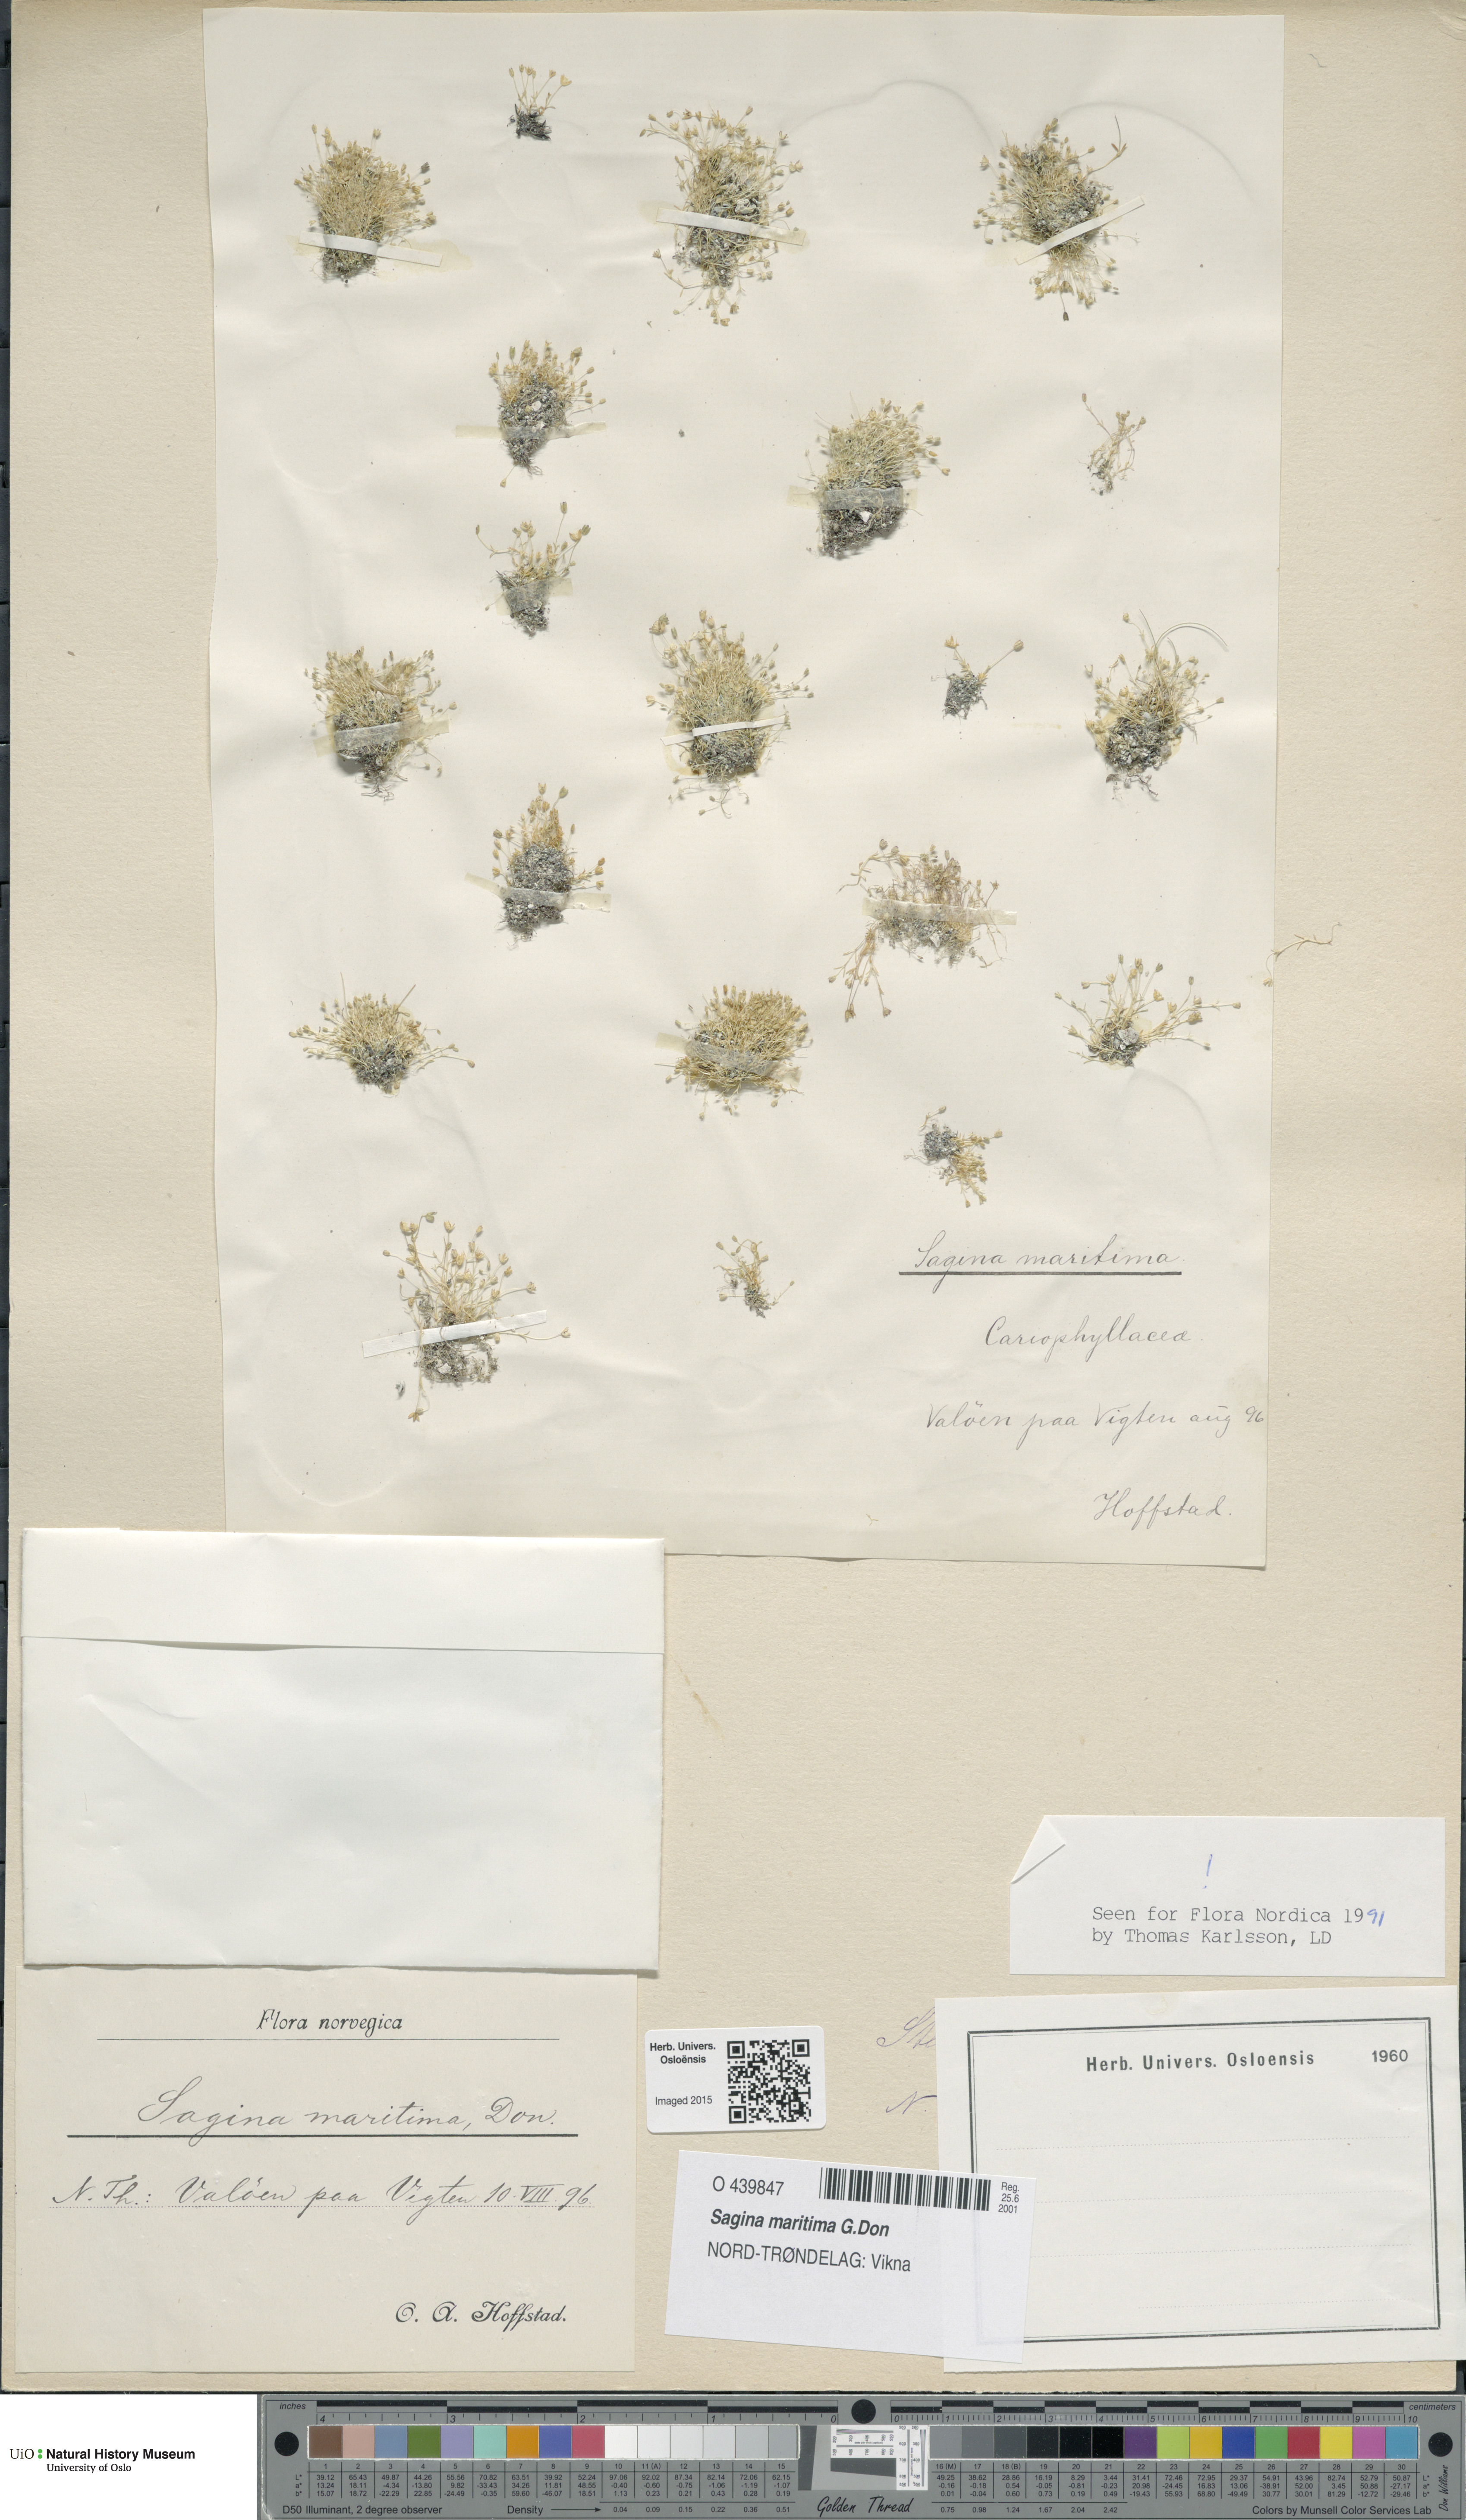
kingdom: Plantae
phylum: Tracheophyta
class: Magnoliopsida
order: Caryophyllales
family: Caryophyllaceae
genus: Sagina
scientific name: Sagina maritima
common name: Sea pearlwort
